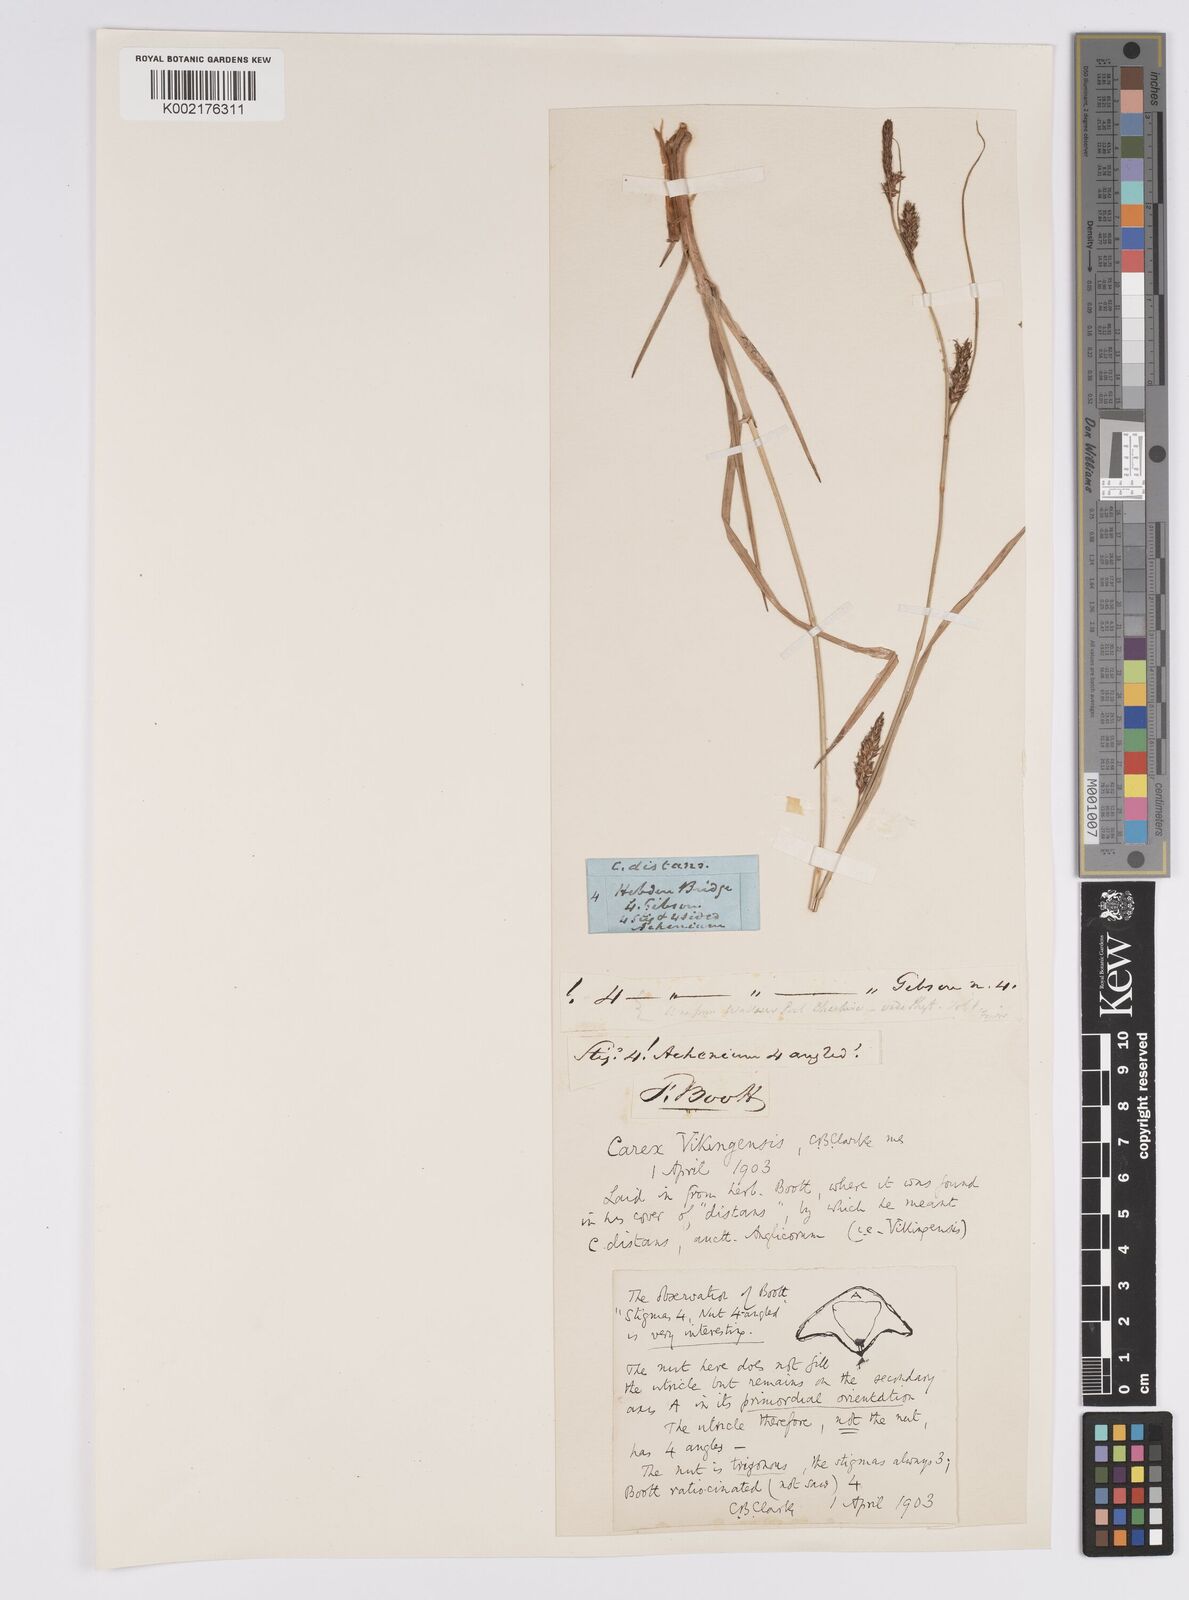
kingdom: Plantae
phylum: Tracheophyta
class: Liliopsida
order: Poales
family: Cyperaceae
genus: Carex
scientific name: Carex distans
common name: Distant sedge
